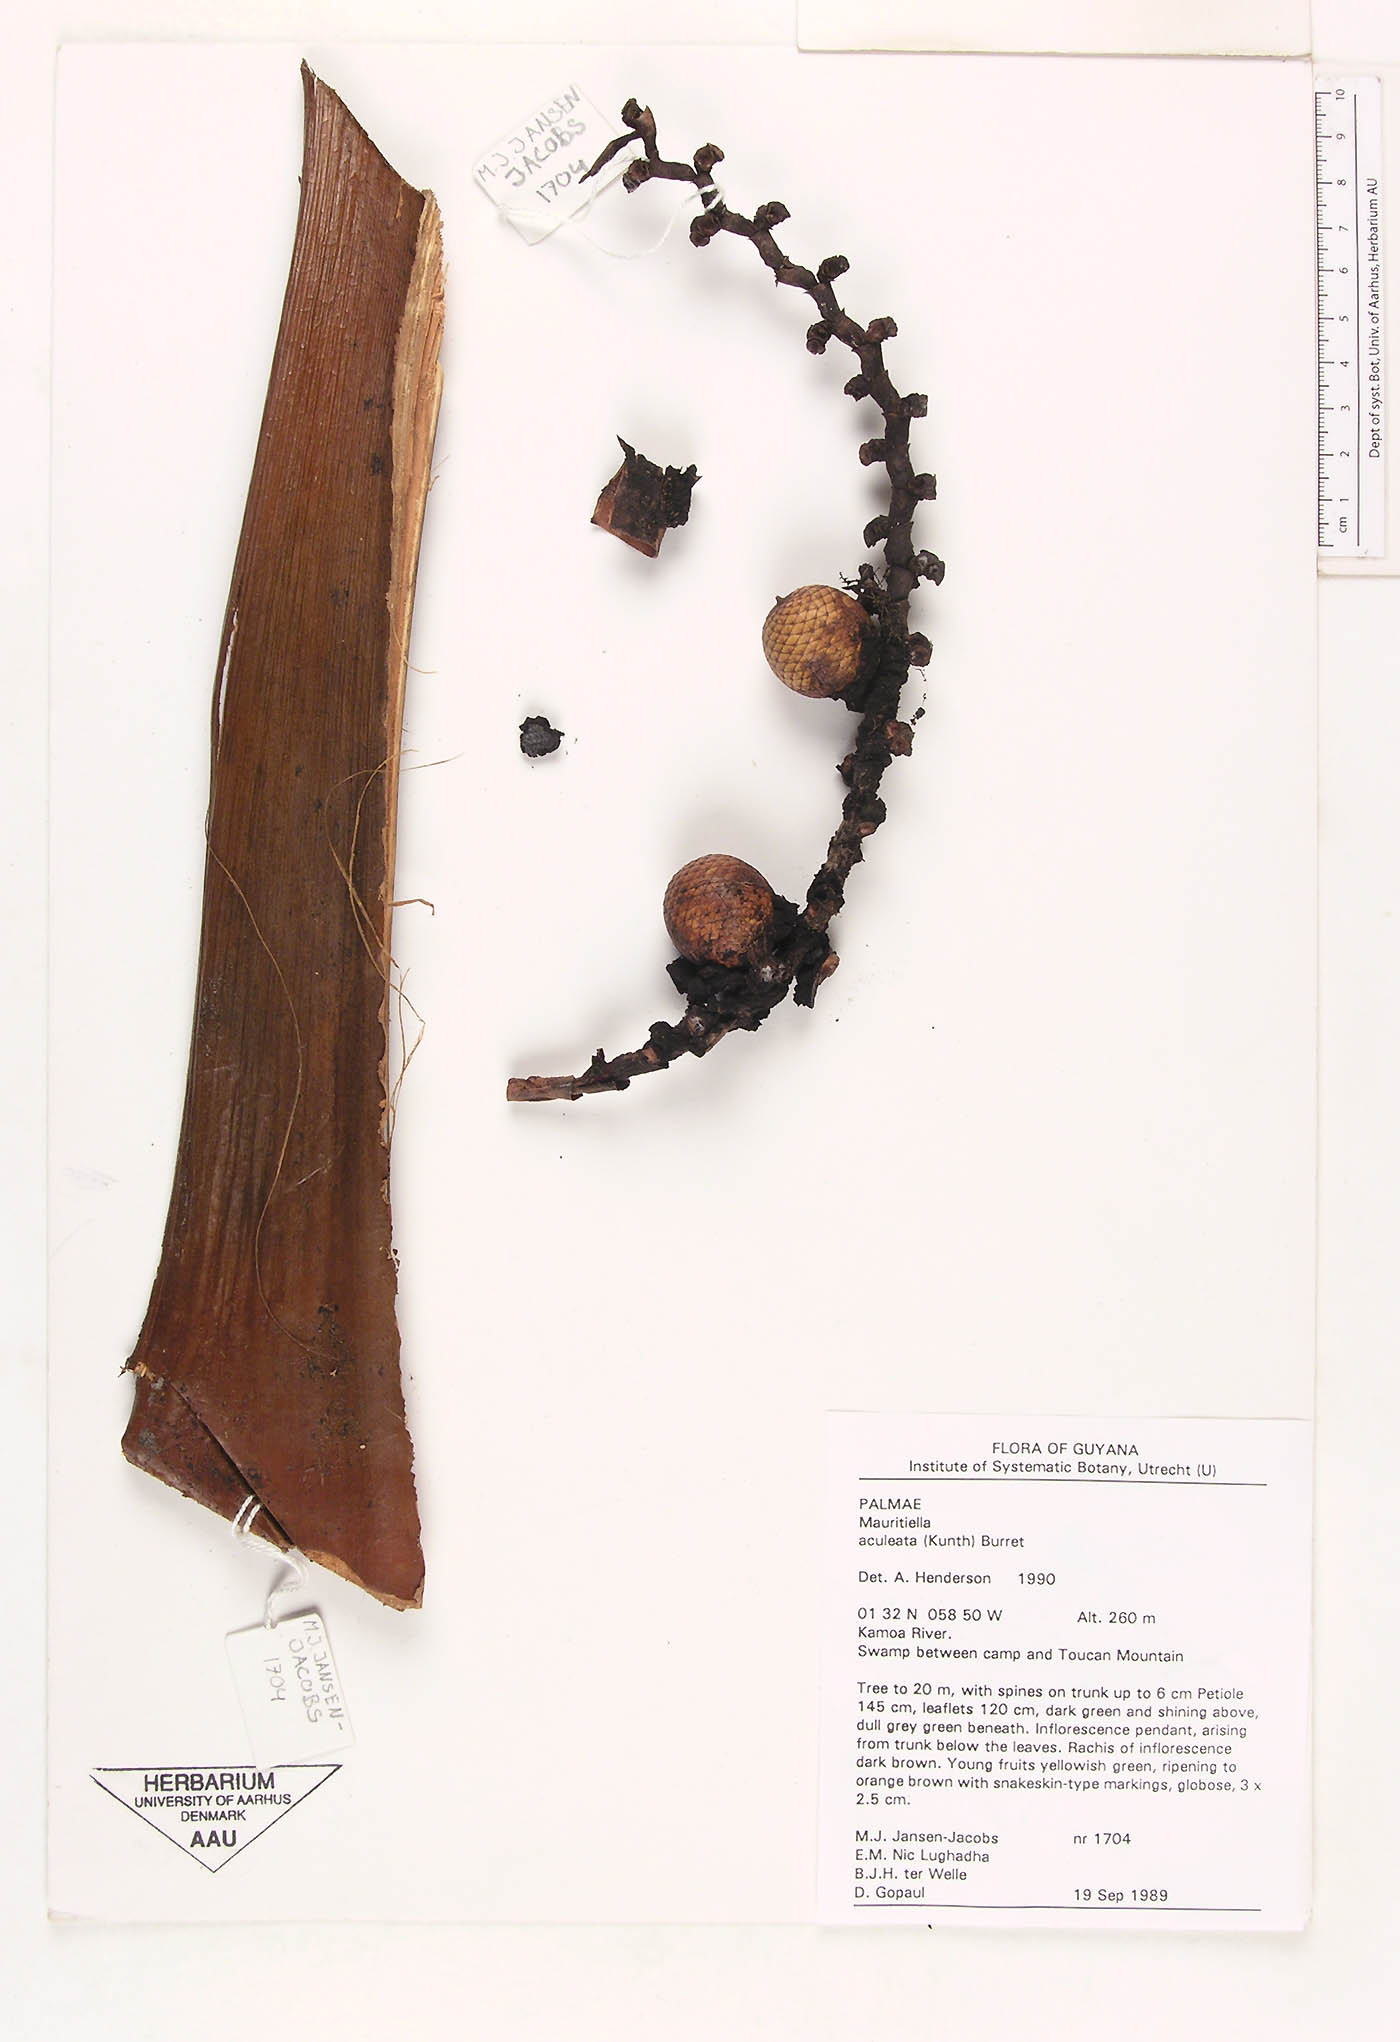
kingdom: Plantae
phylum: Tracheophyta
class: Liliopsida
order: Arecales
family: Arecaceae
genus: Mauritiella
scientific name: Mauritiella aculeata
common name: Buritirana
